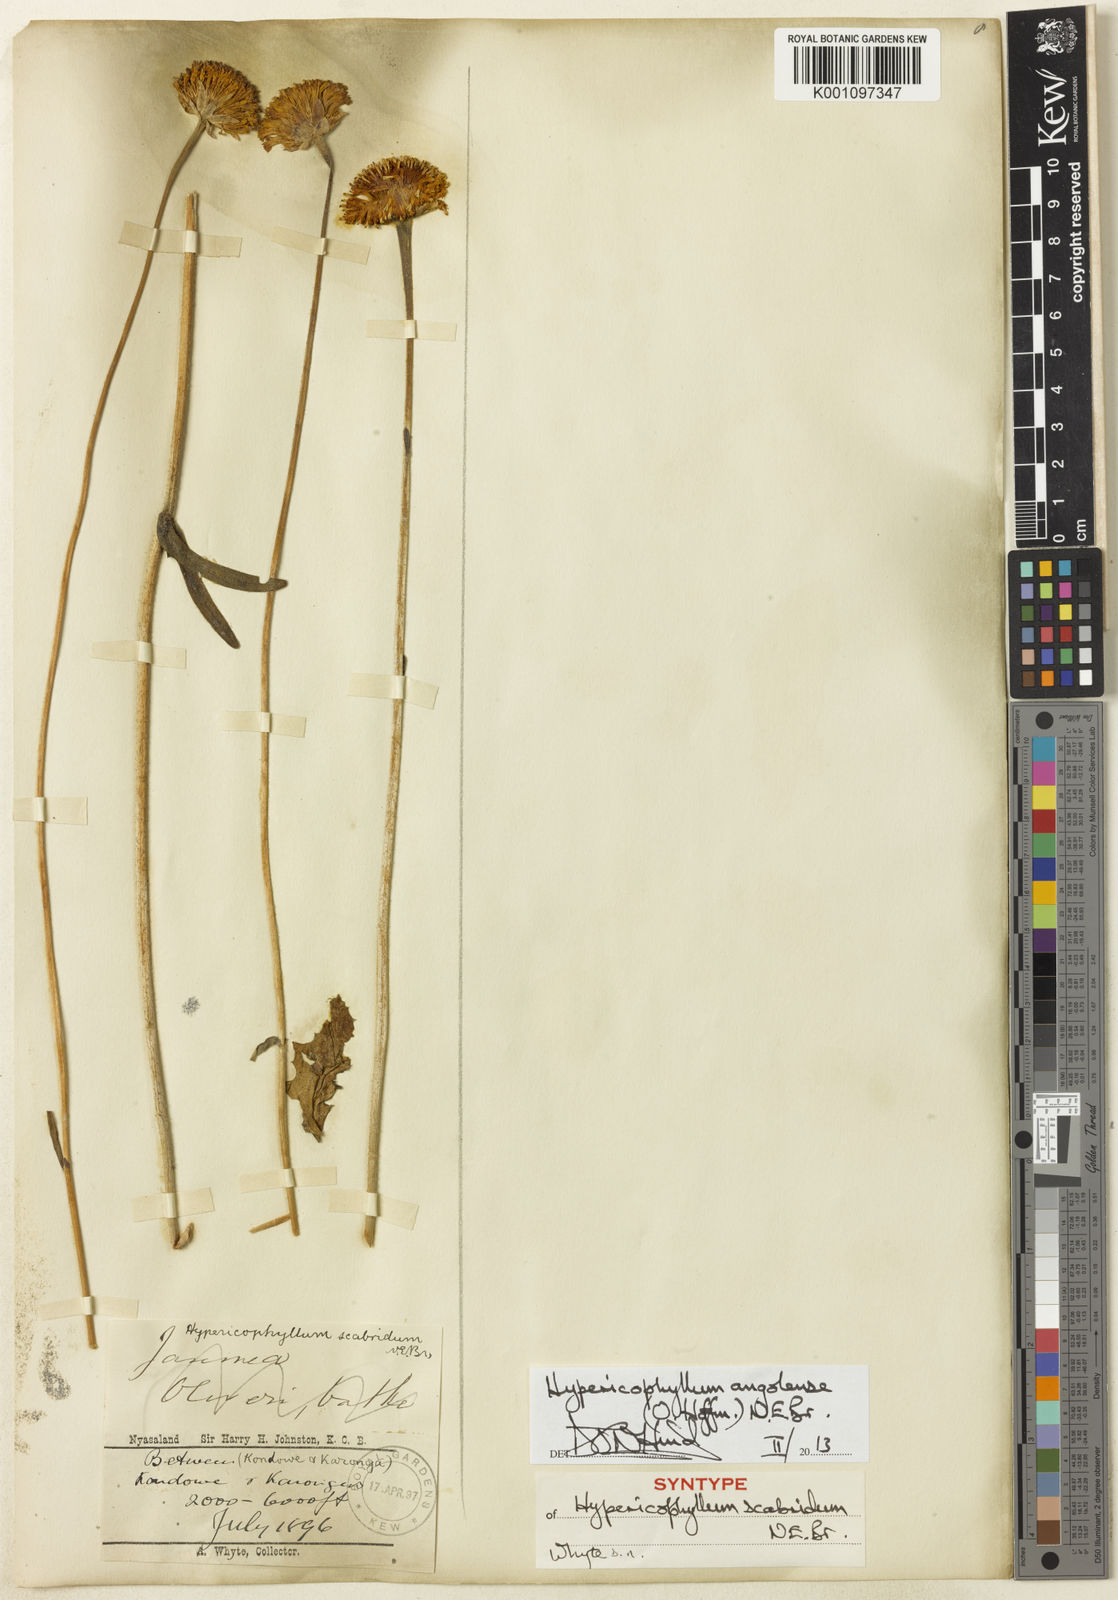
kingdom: Plantae
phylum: Tracheophyta
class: Magnoliopsida
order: Asterales
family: Asteraceae
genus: Hypericophyllum
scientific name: Hypericophyllum angolense
